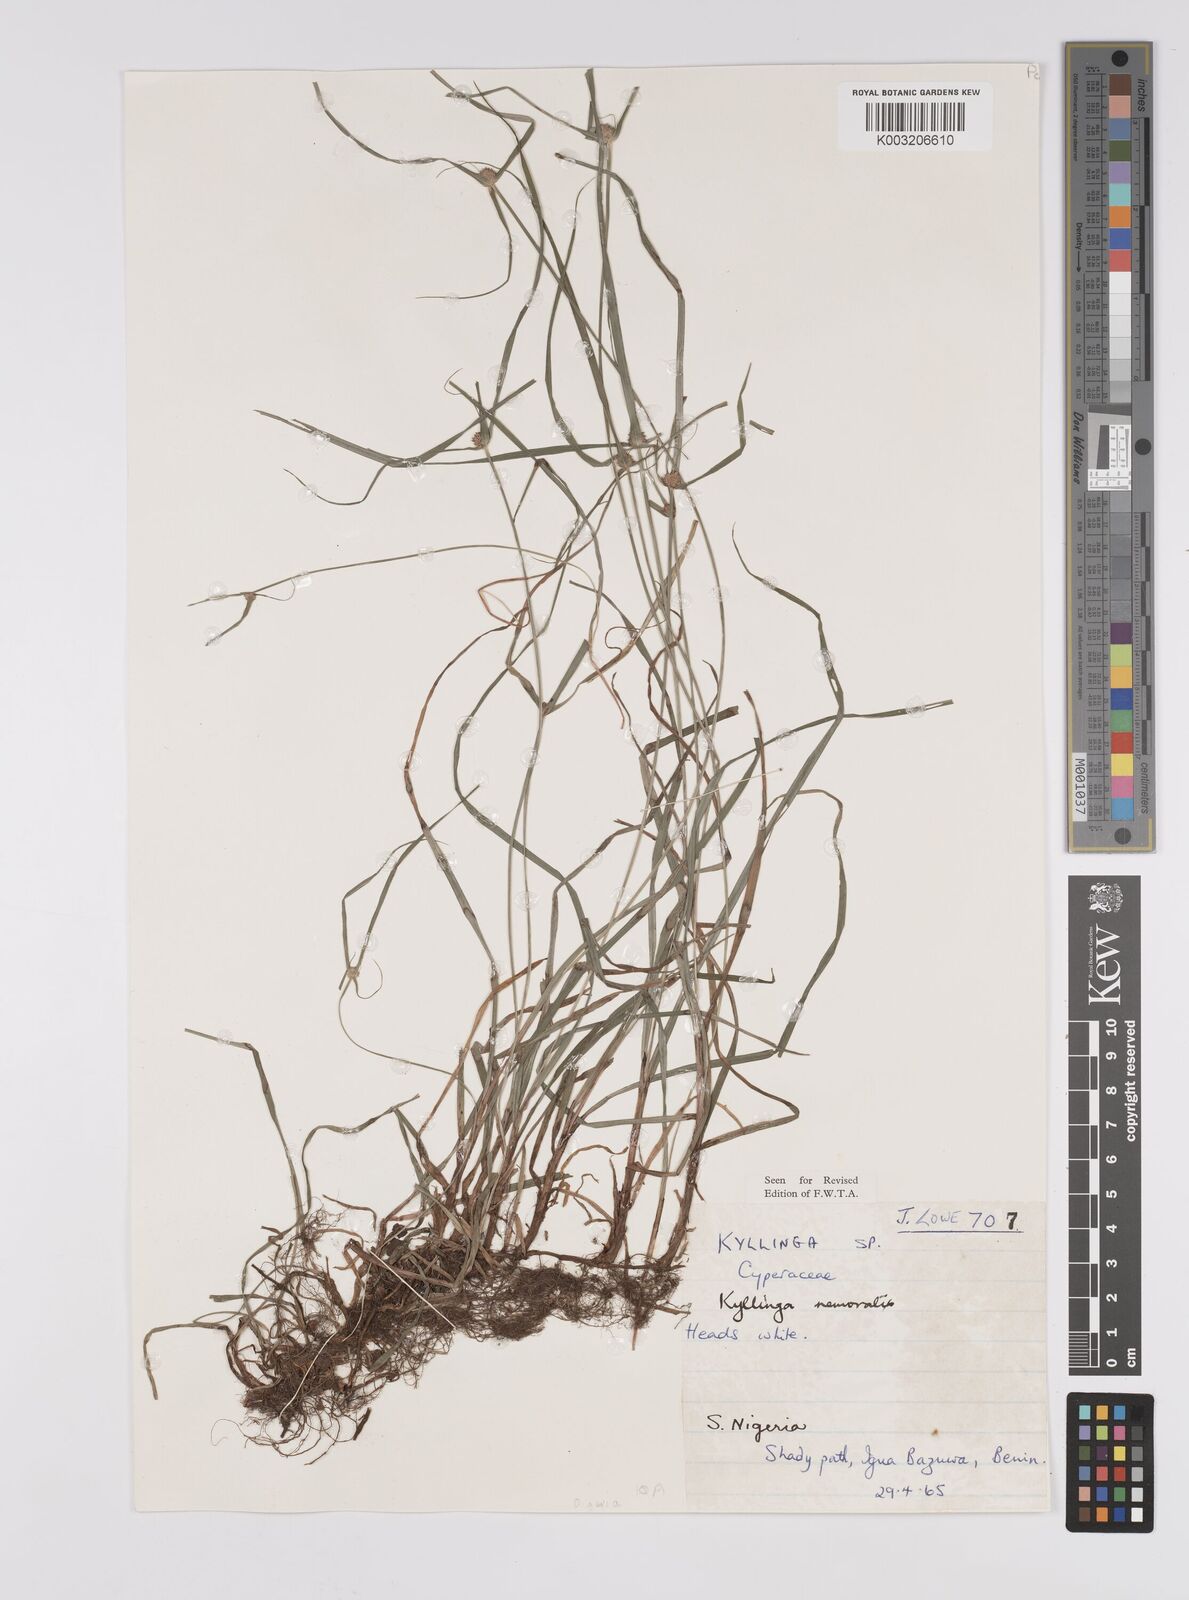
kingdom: Plantae
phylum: Tracheophyta
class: Liliopsida
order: Poales
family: Cyperaceae
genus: Cyperus
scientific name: Cyperus nemoralis
